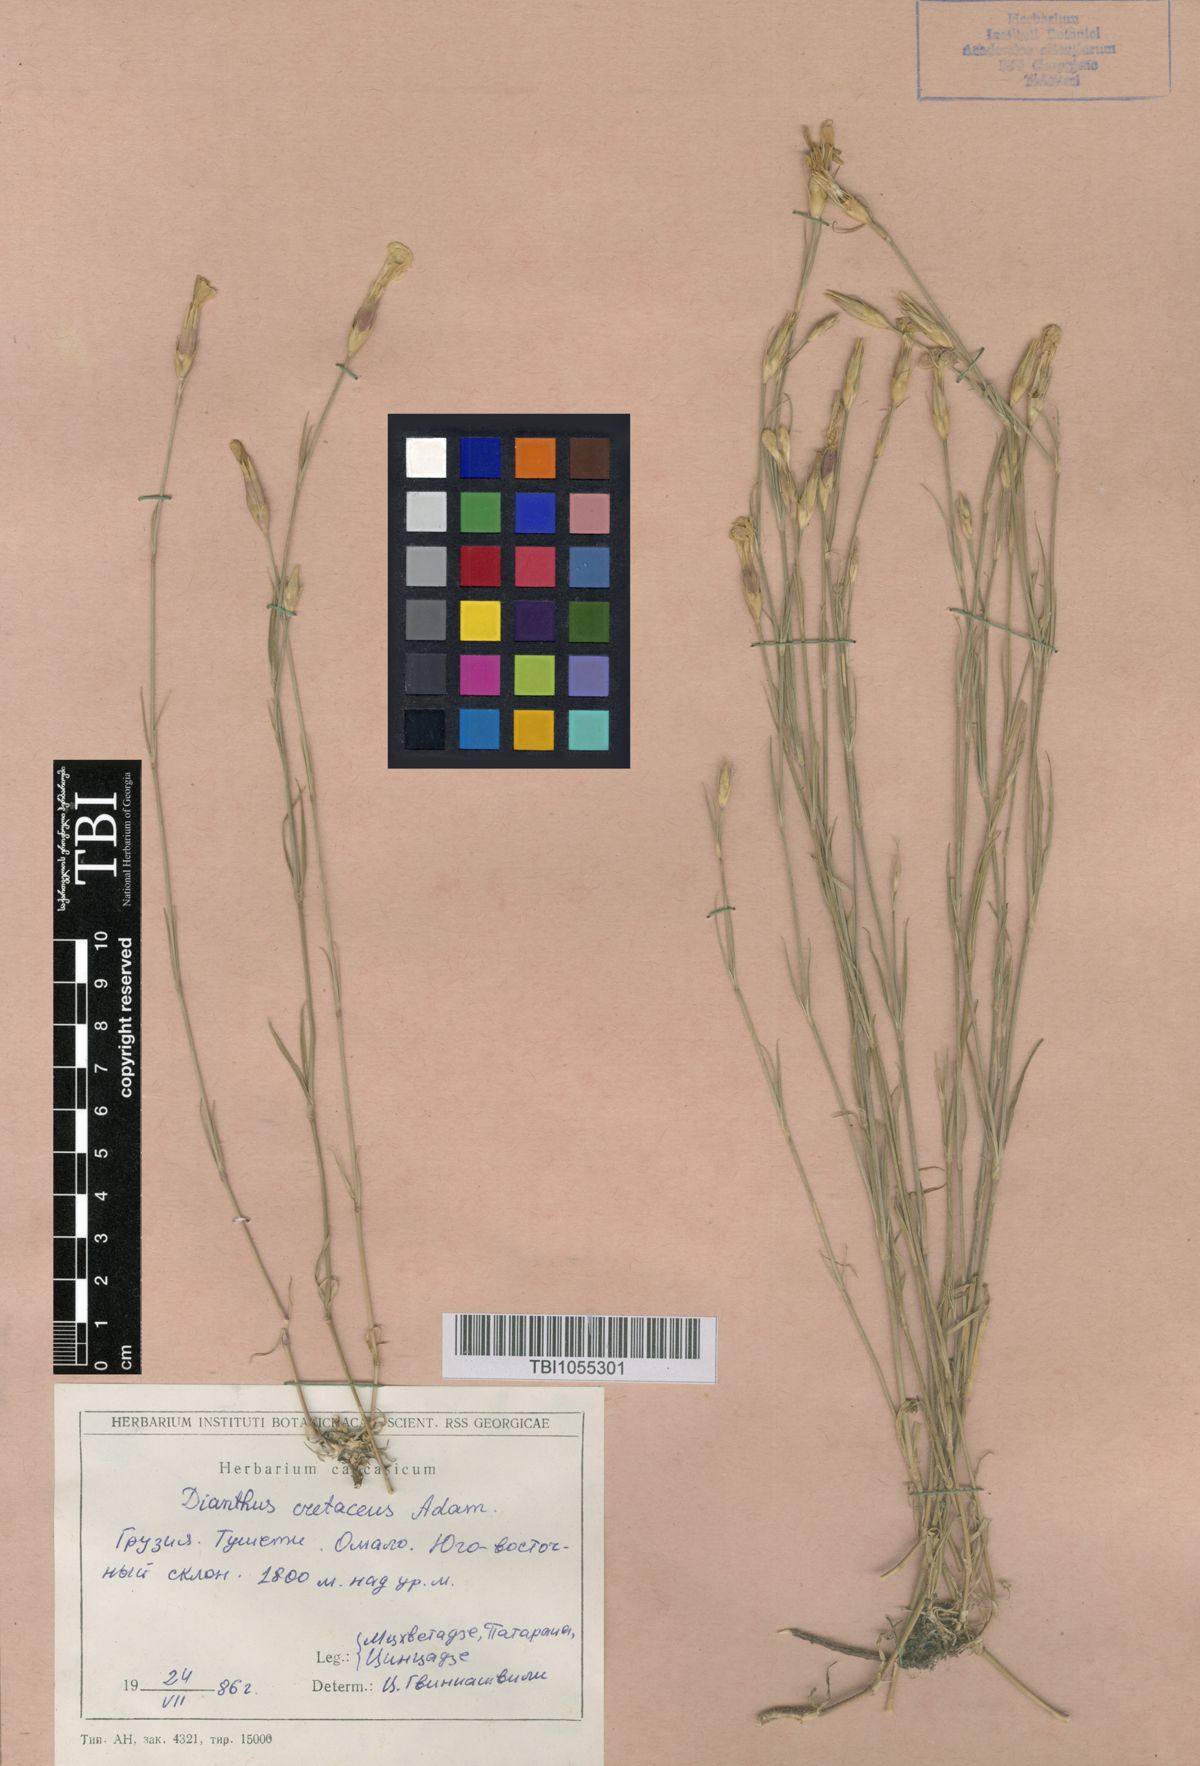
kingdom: Plantae
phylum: Tracheophyta
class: Magnoliopsida
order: Caryophyllales
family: Caryophyllaceae
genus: Dianthus
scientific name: Dianthus cretaceus
